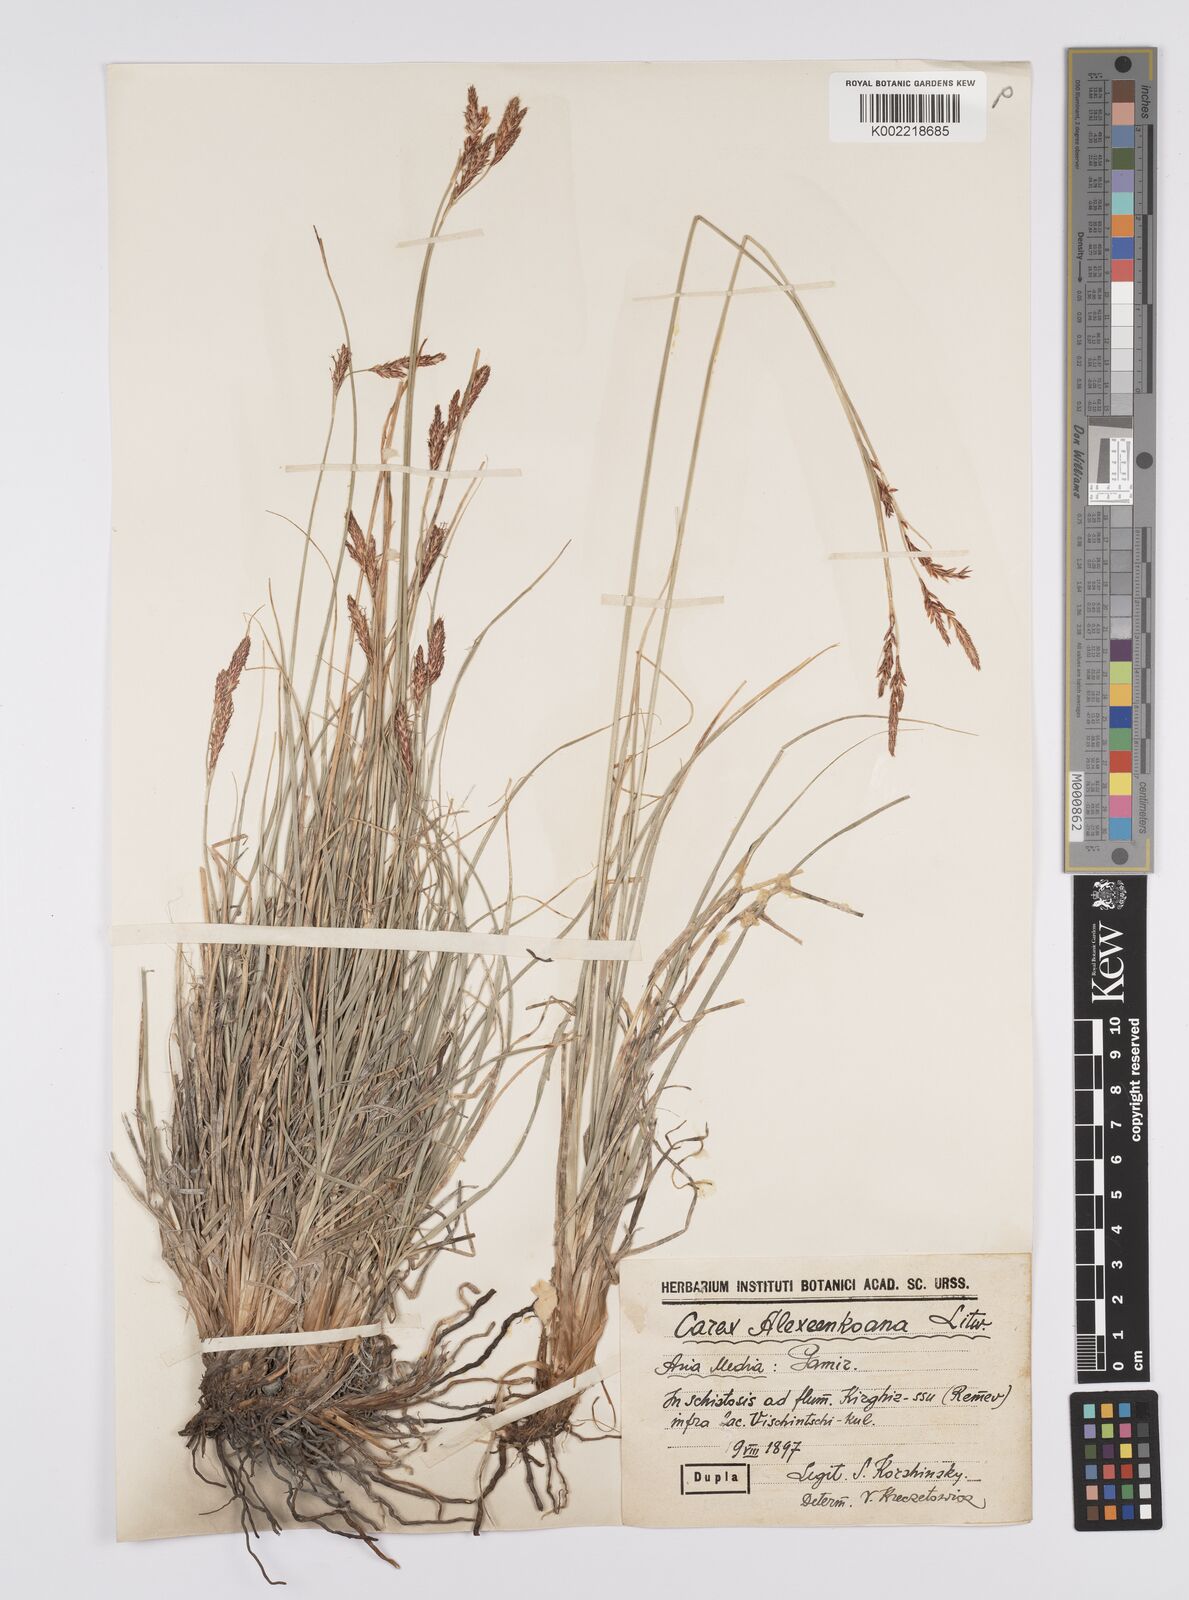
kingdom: Plantae
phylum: Tracheophyta
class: Liliopsida
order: Poales
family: Cyperaceae
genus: Carex
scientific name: Carex haematostoma
